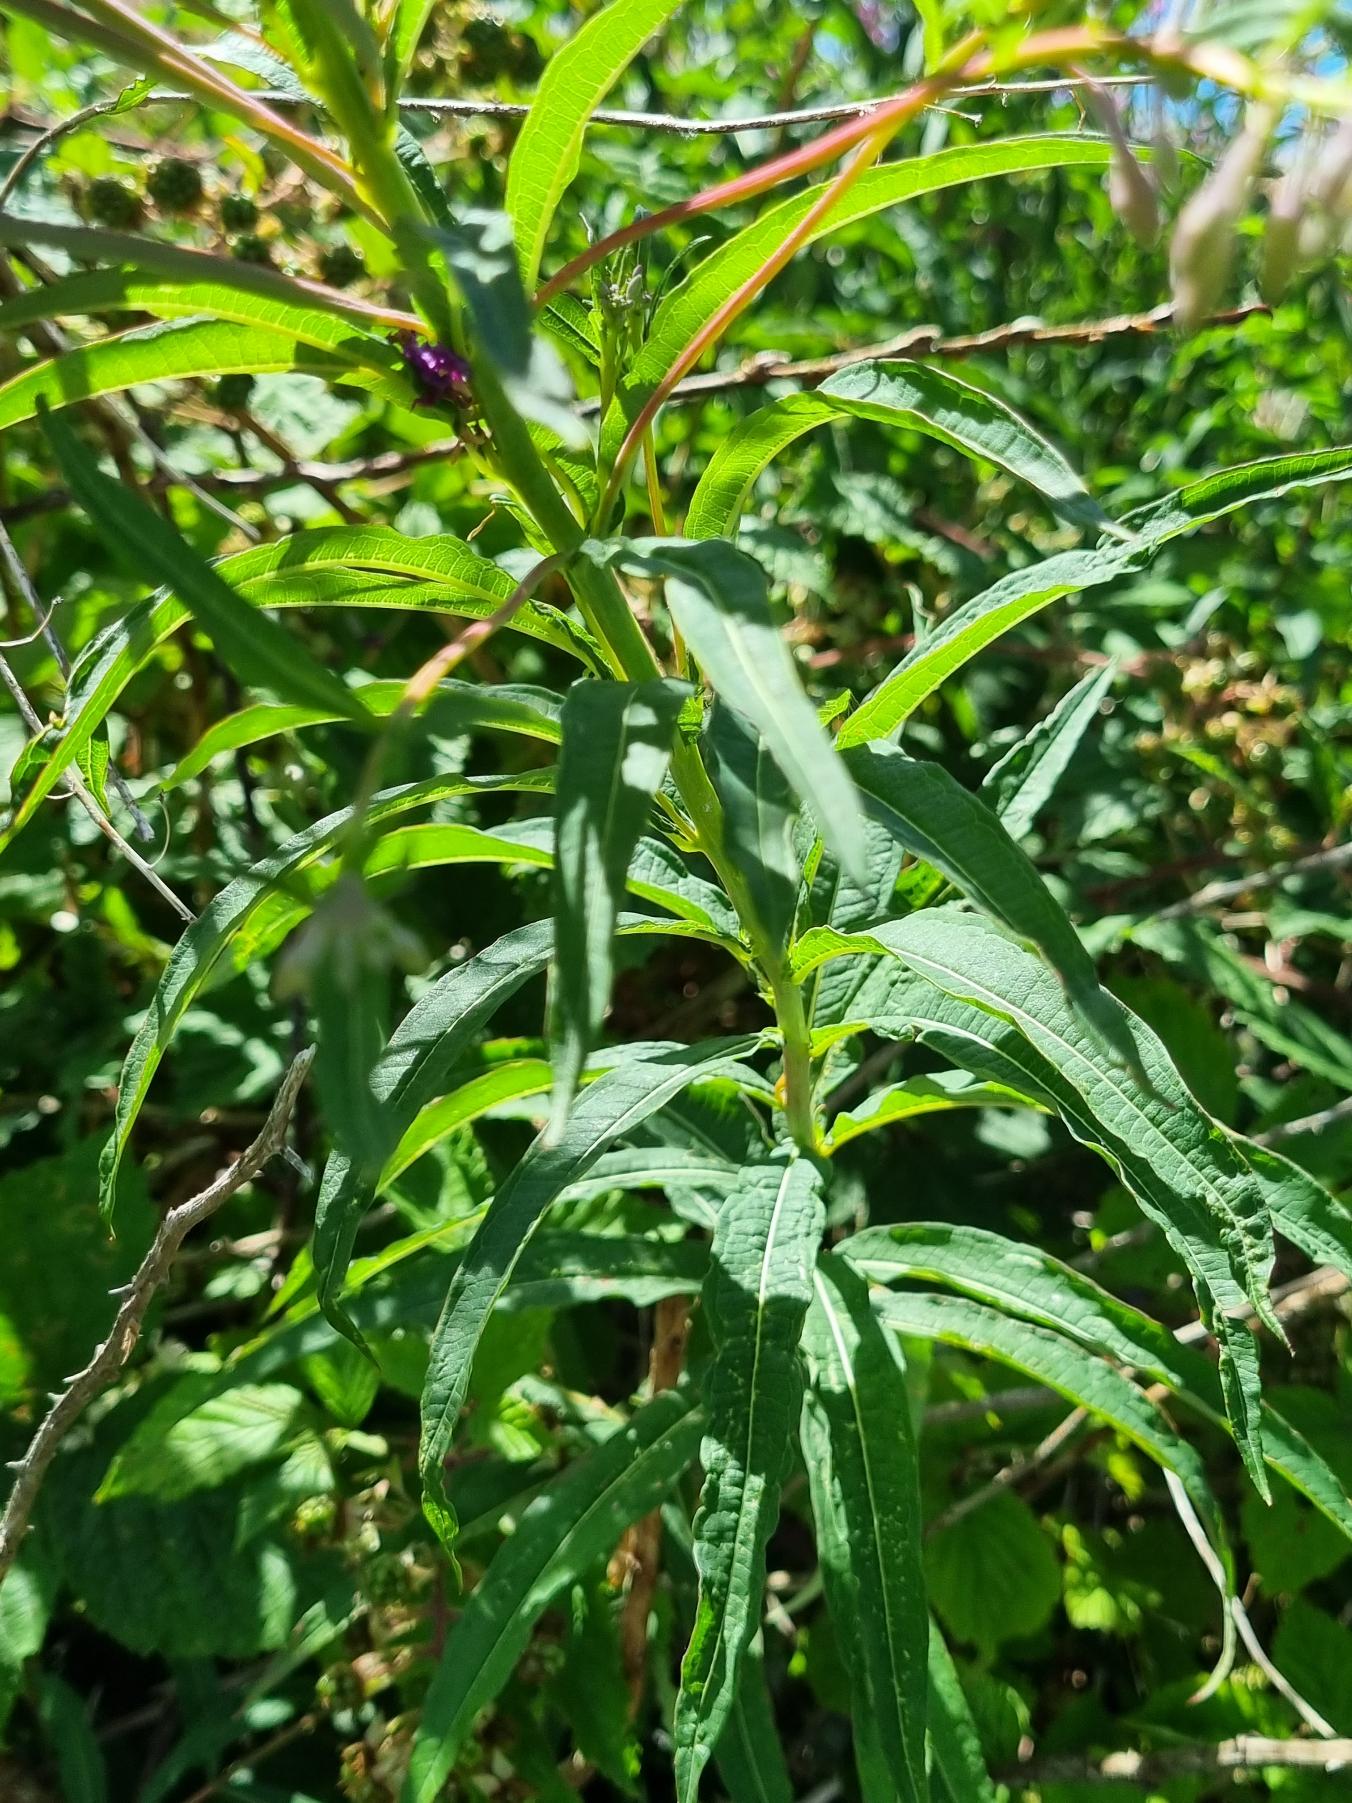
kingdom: Plantae
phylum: Tracheophyta
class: Magnoliopsida
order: Myrtales
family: Onagraceae
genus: Chamaenerion
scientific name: Chamaenerion angustifolium
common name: Gederams
